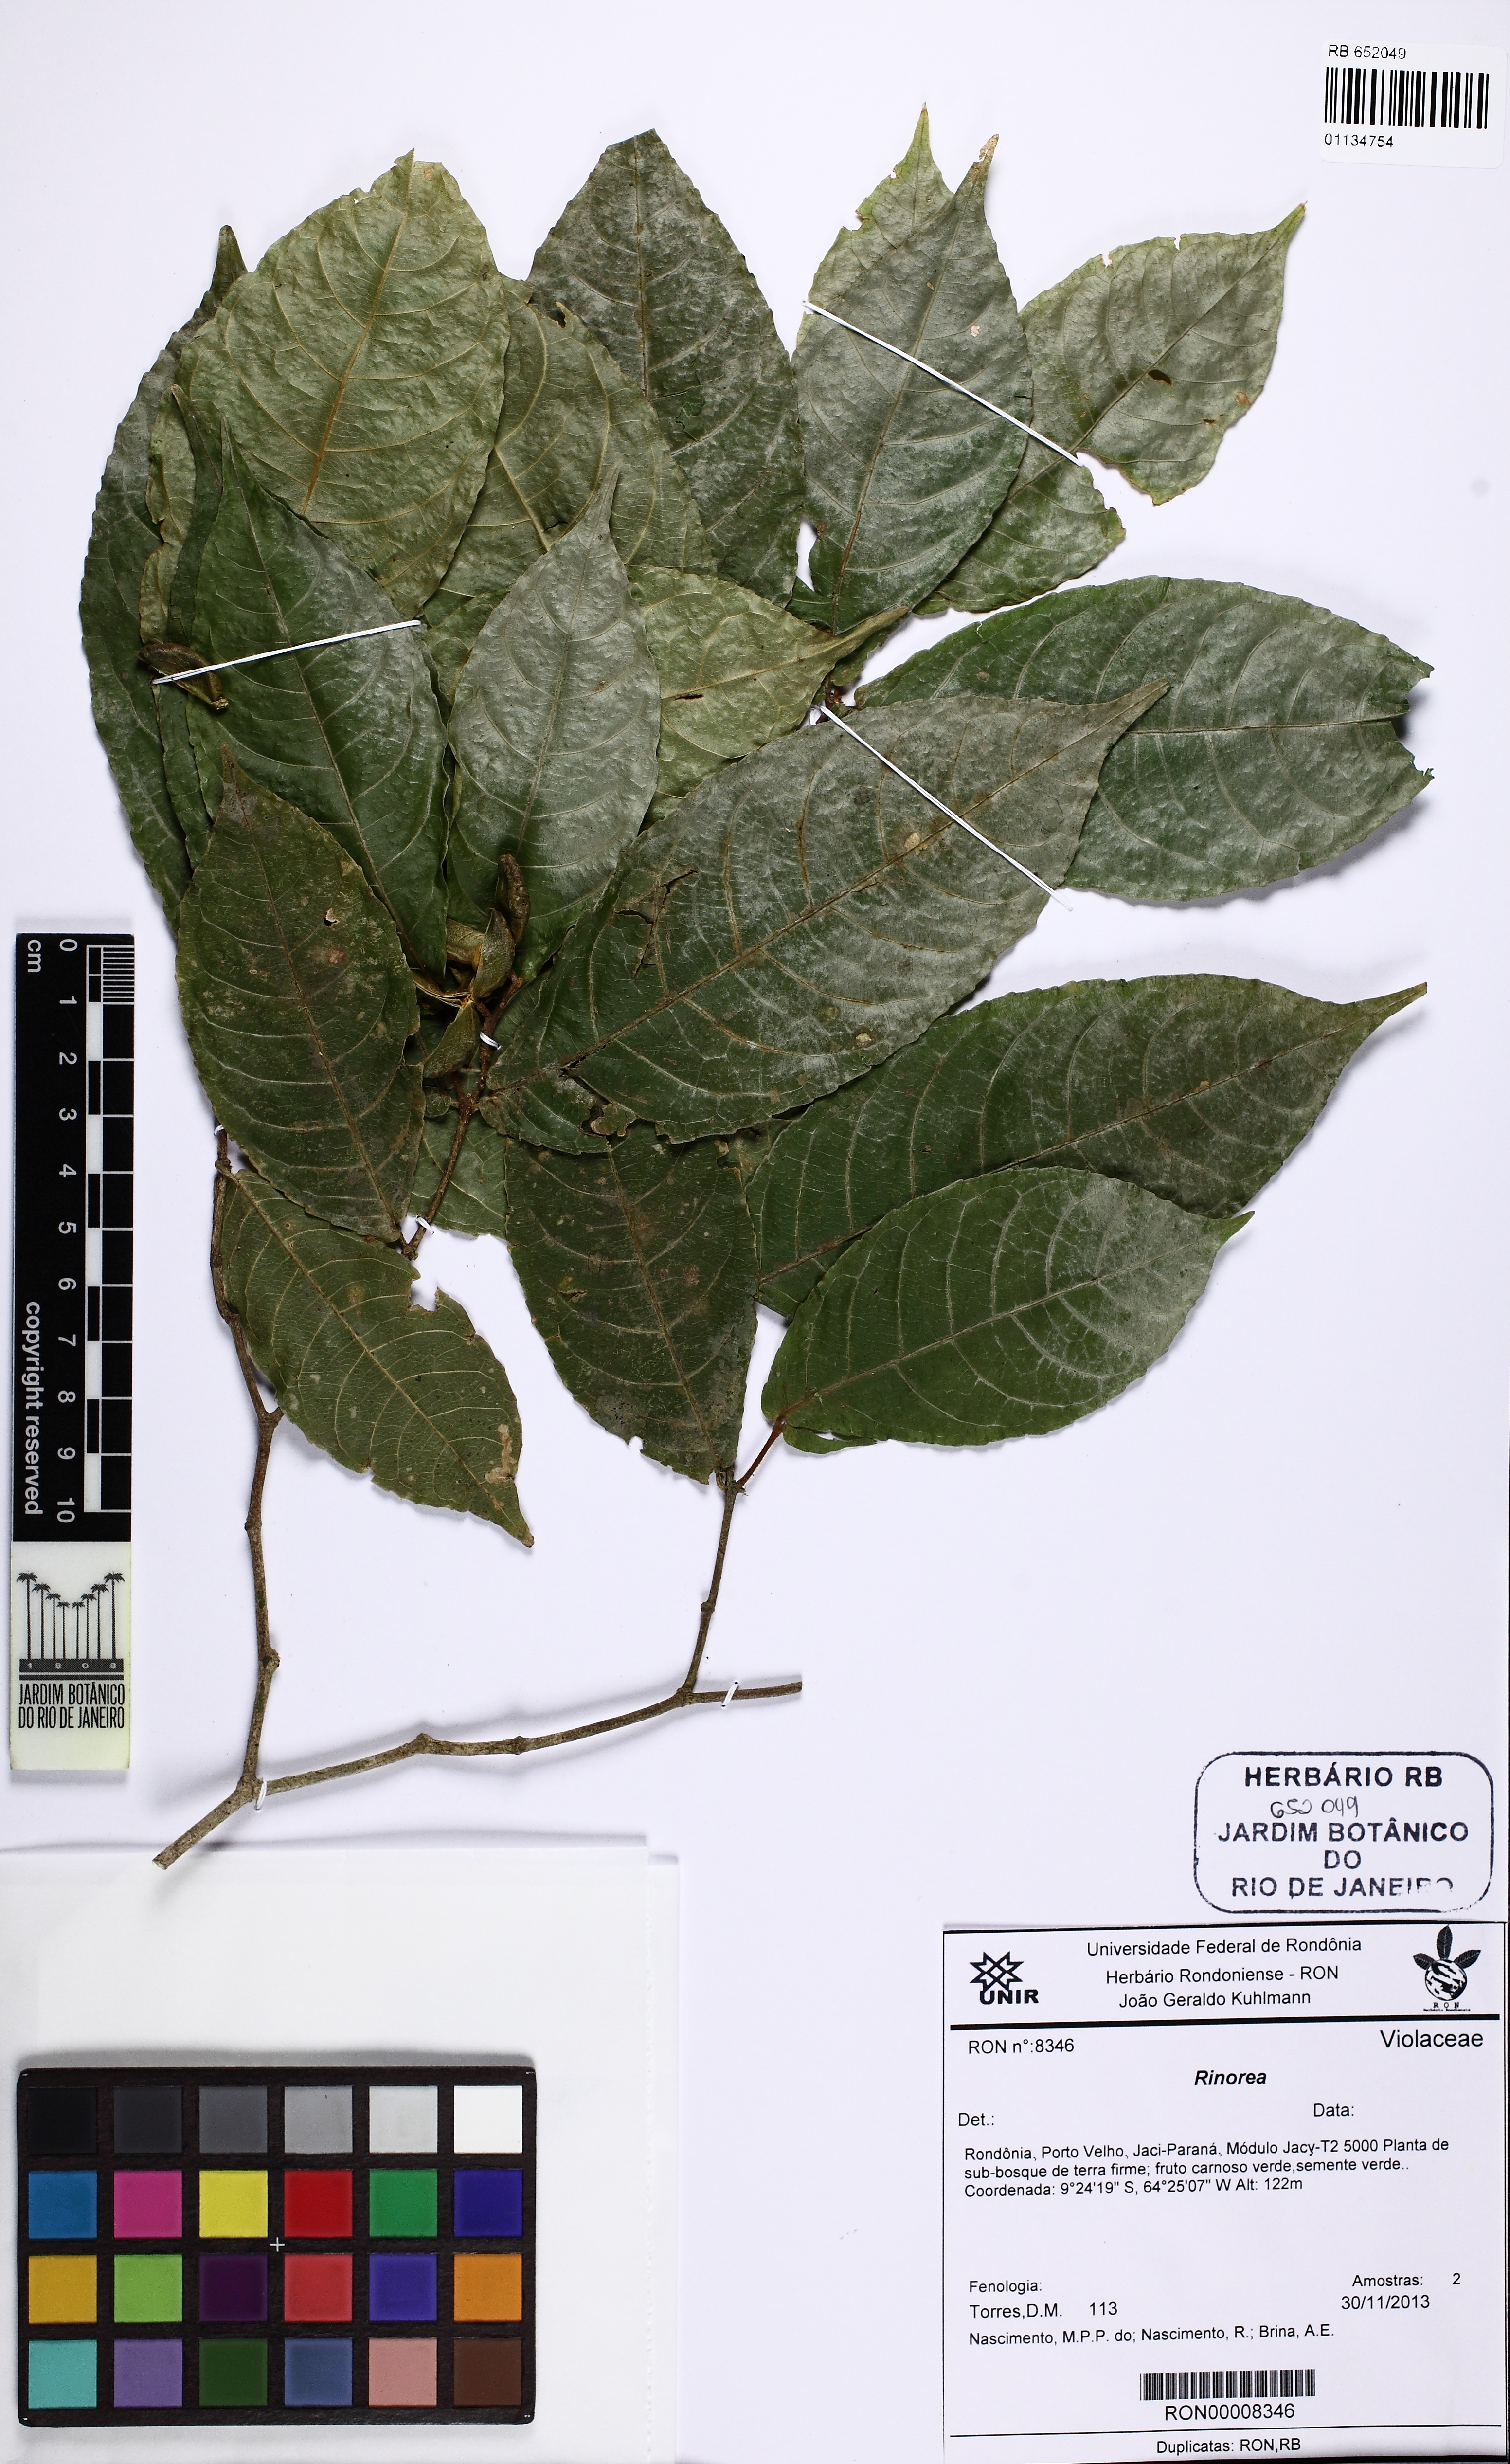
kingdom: Plantae
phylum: Tracheophyta
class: Magnoliopsida
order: Malpighiales
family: Violaceae
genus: Rinorea
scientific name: Rinorea
